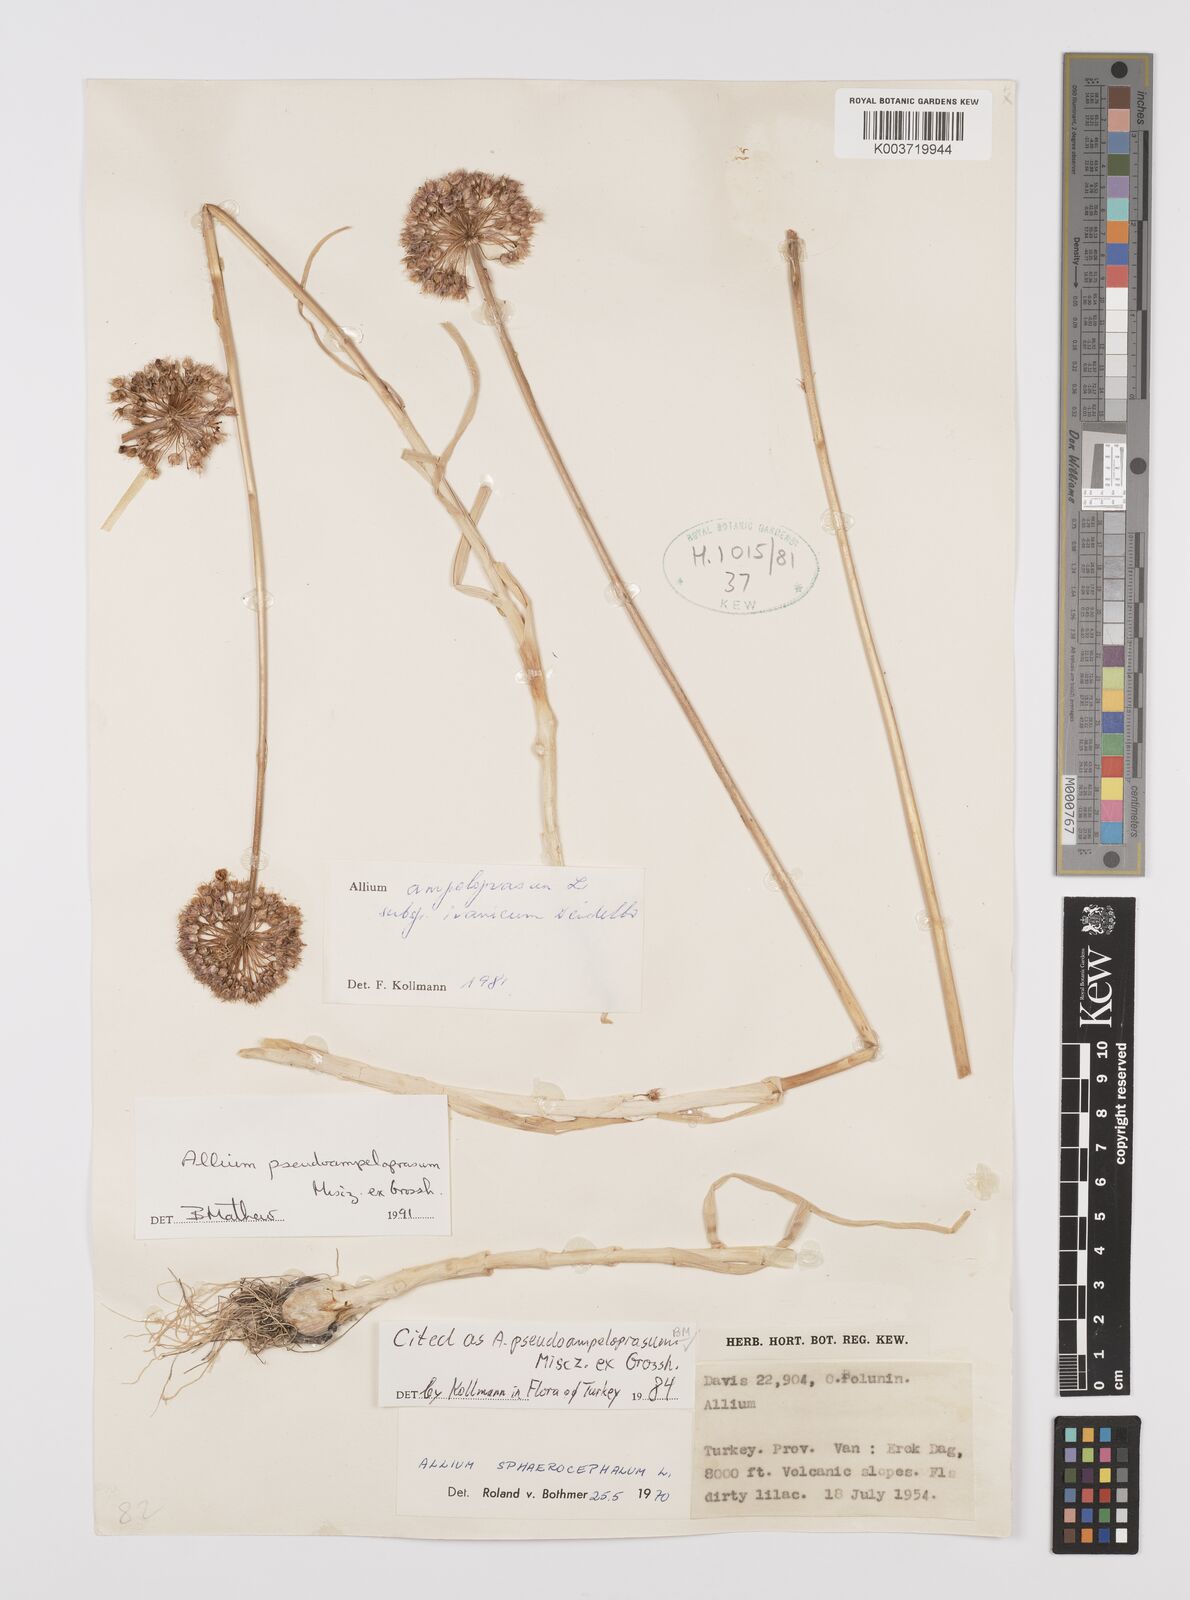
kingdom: Plantae
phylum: Tracheophyta
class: Liliopsida
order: Asparagales
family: Amaryllidaceae
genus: Allium
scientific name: Allium pseudoampeloprasum
